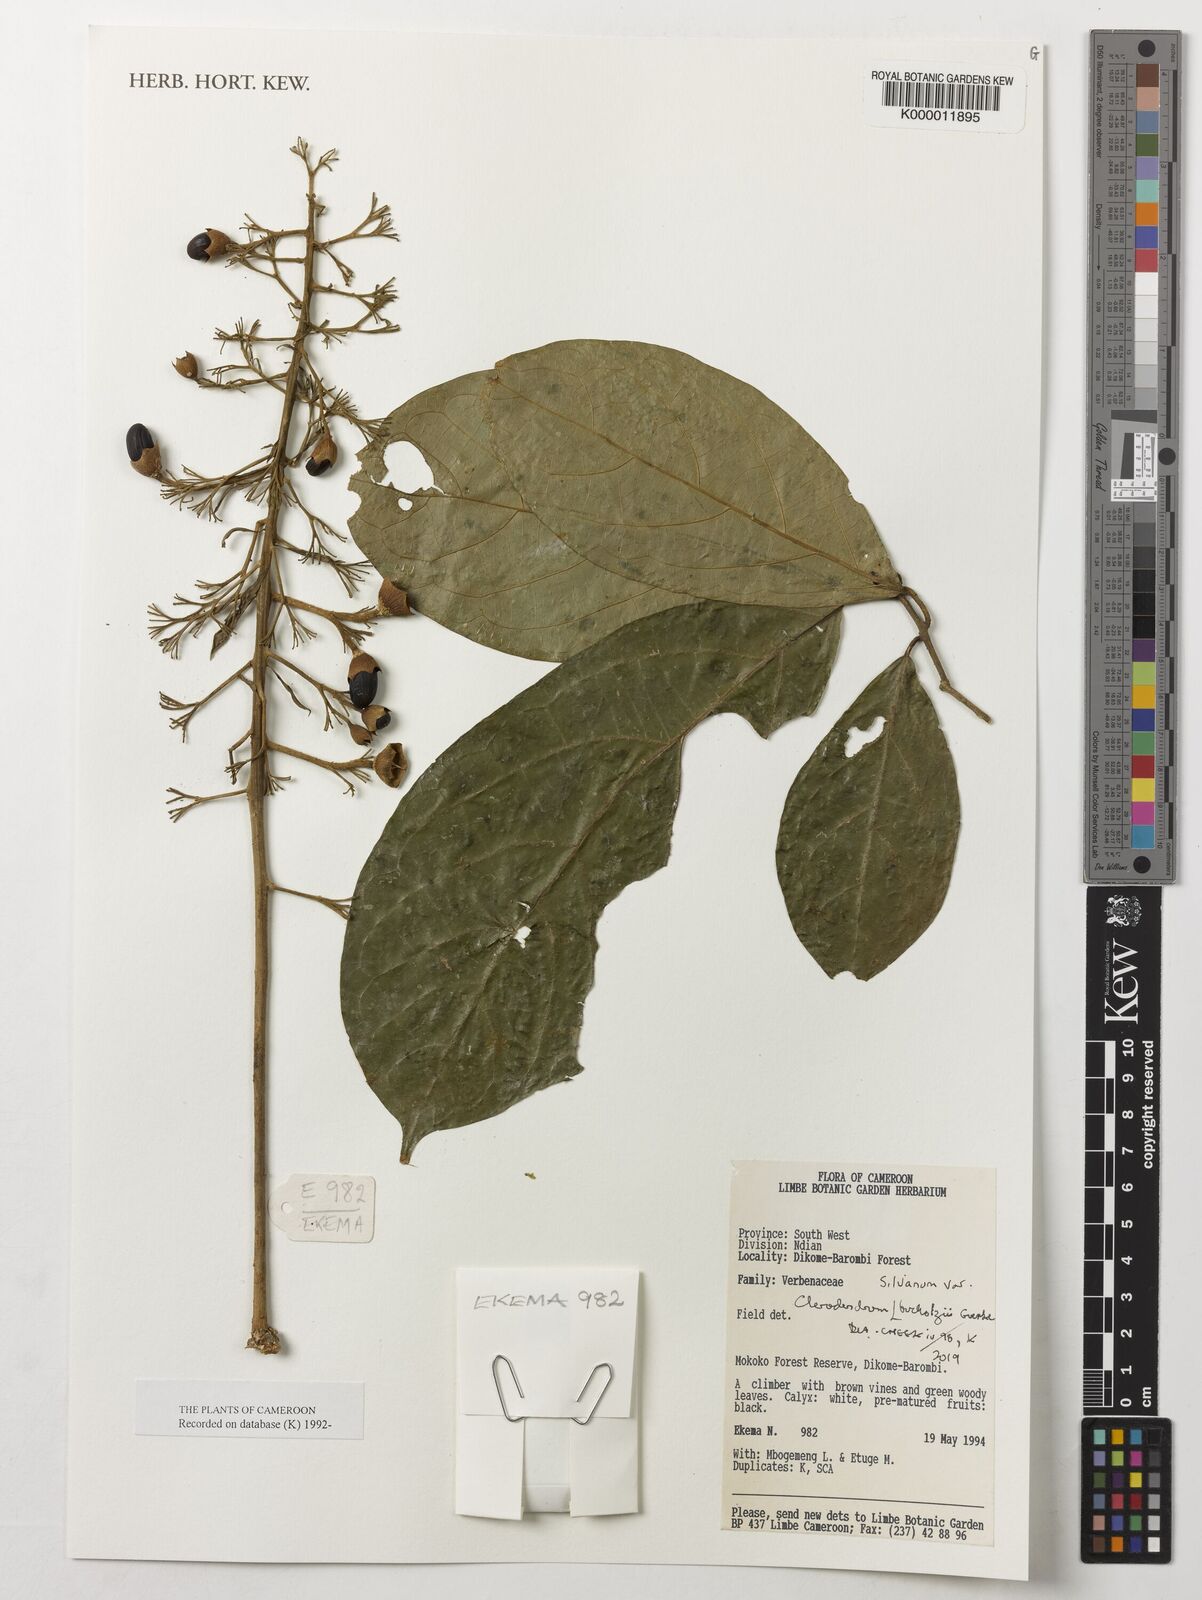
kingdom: Plantae
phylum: Tracheophyta
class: Magnoliopsida
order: Lamiales
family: Lamiaceae
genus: Clerodendrum
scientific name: Clerodendrum silvanum
